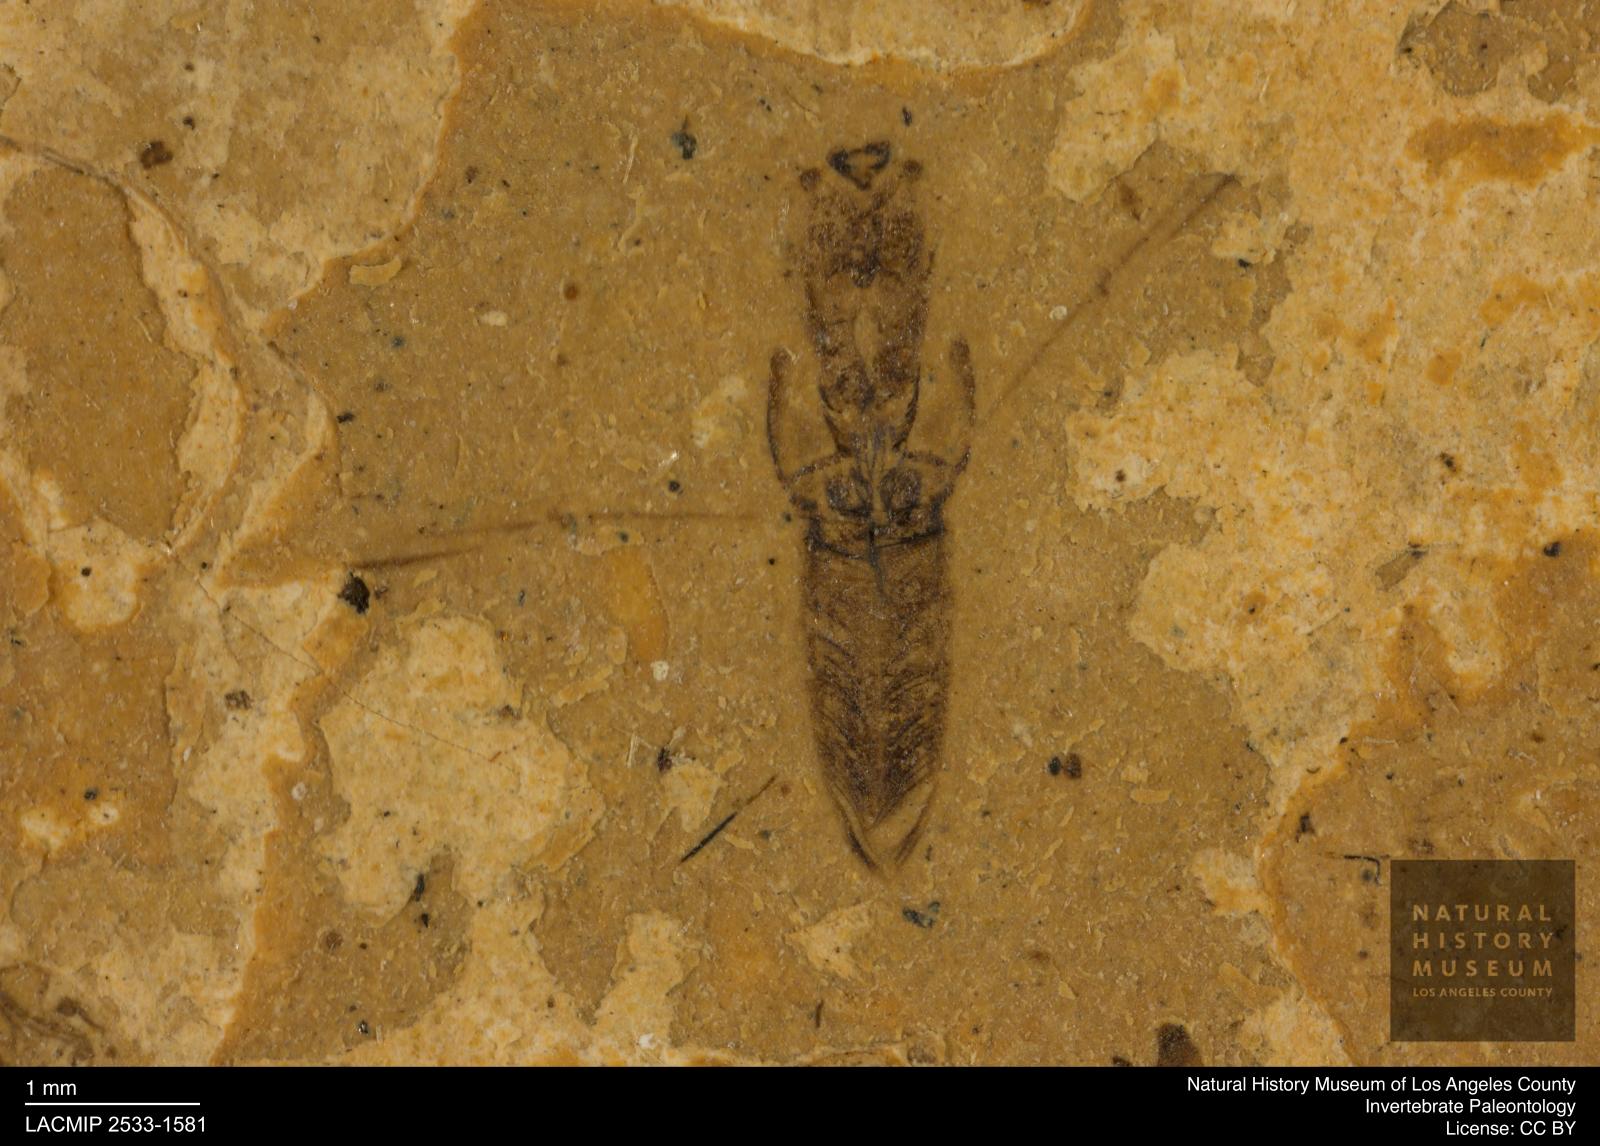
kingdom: Animalia
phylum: Arthropoda
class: Insecta
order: Hemiptera
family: Notonectidae
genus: Notonecta
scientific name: Notonecta
